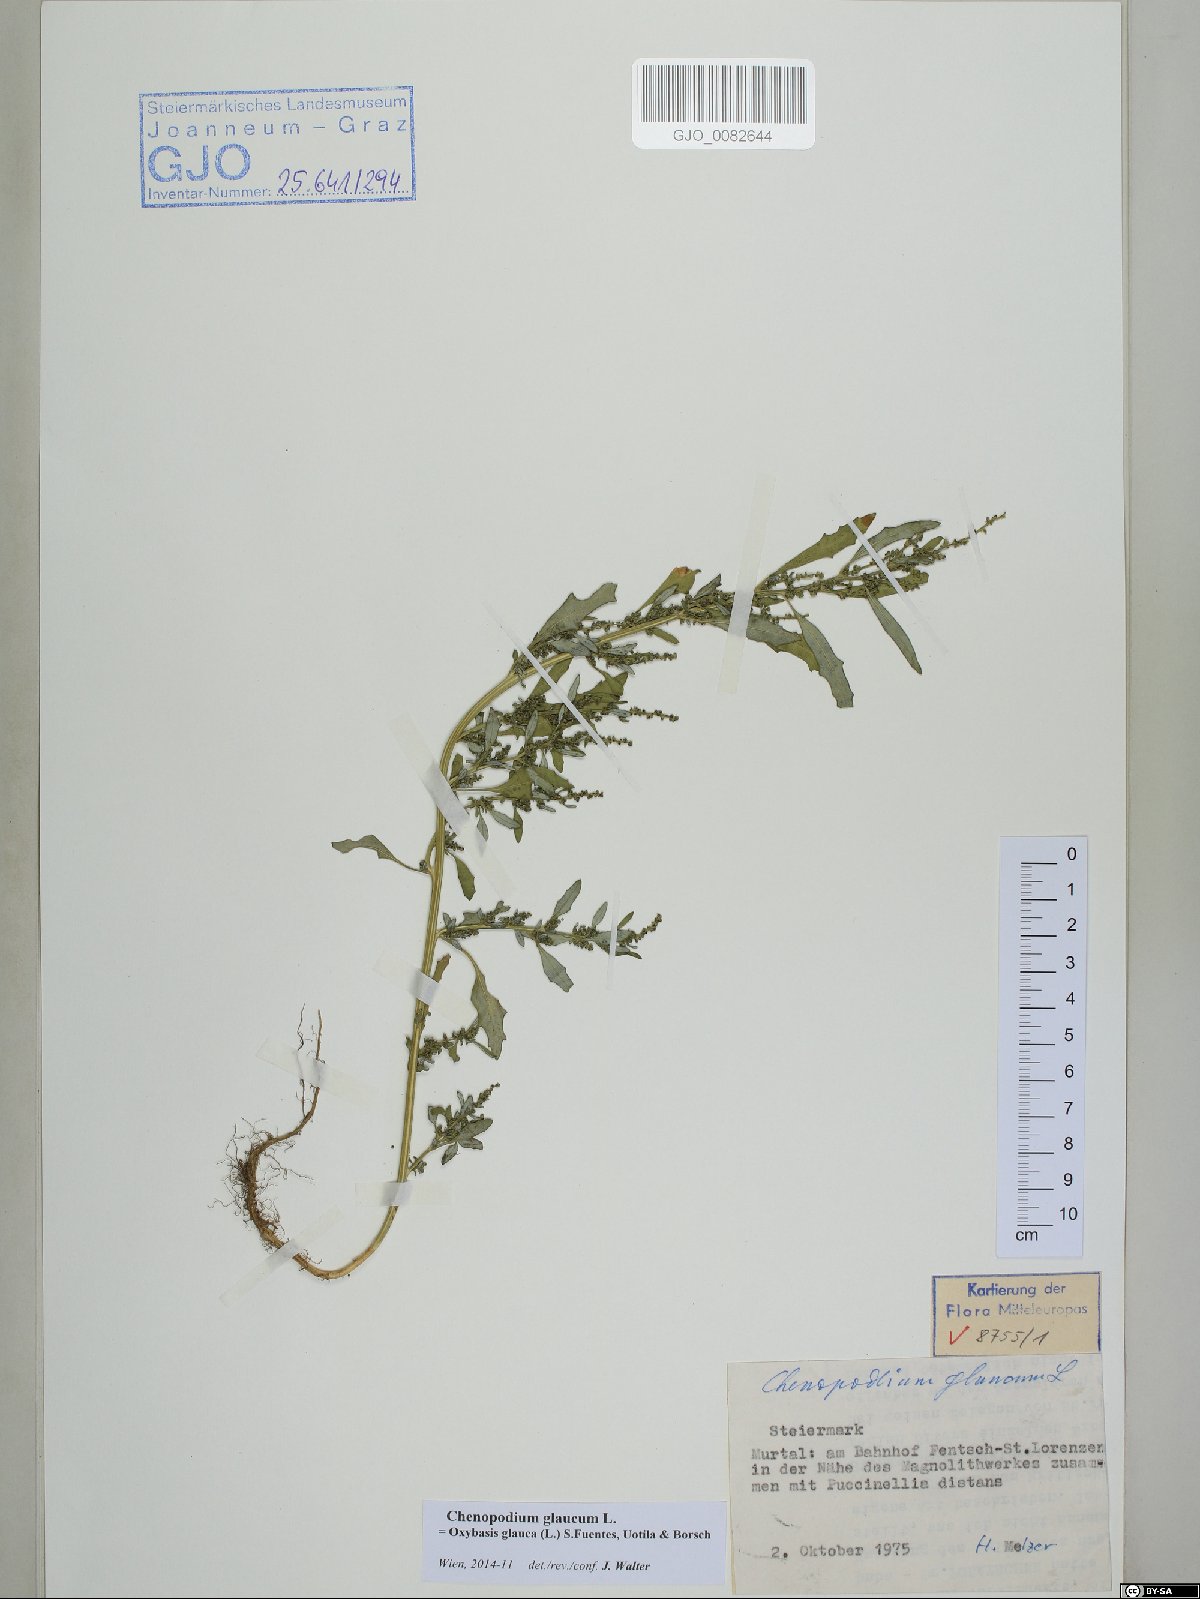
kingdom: Plantae
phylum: Tracheophyta
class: Magnoliopsida
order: Caryophyllales
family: Amaranthaceae
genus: Oxybasis
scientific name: Oxybasis glauca
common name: Glaucous goosefoot
